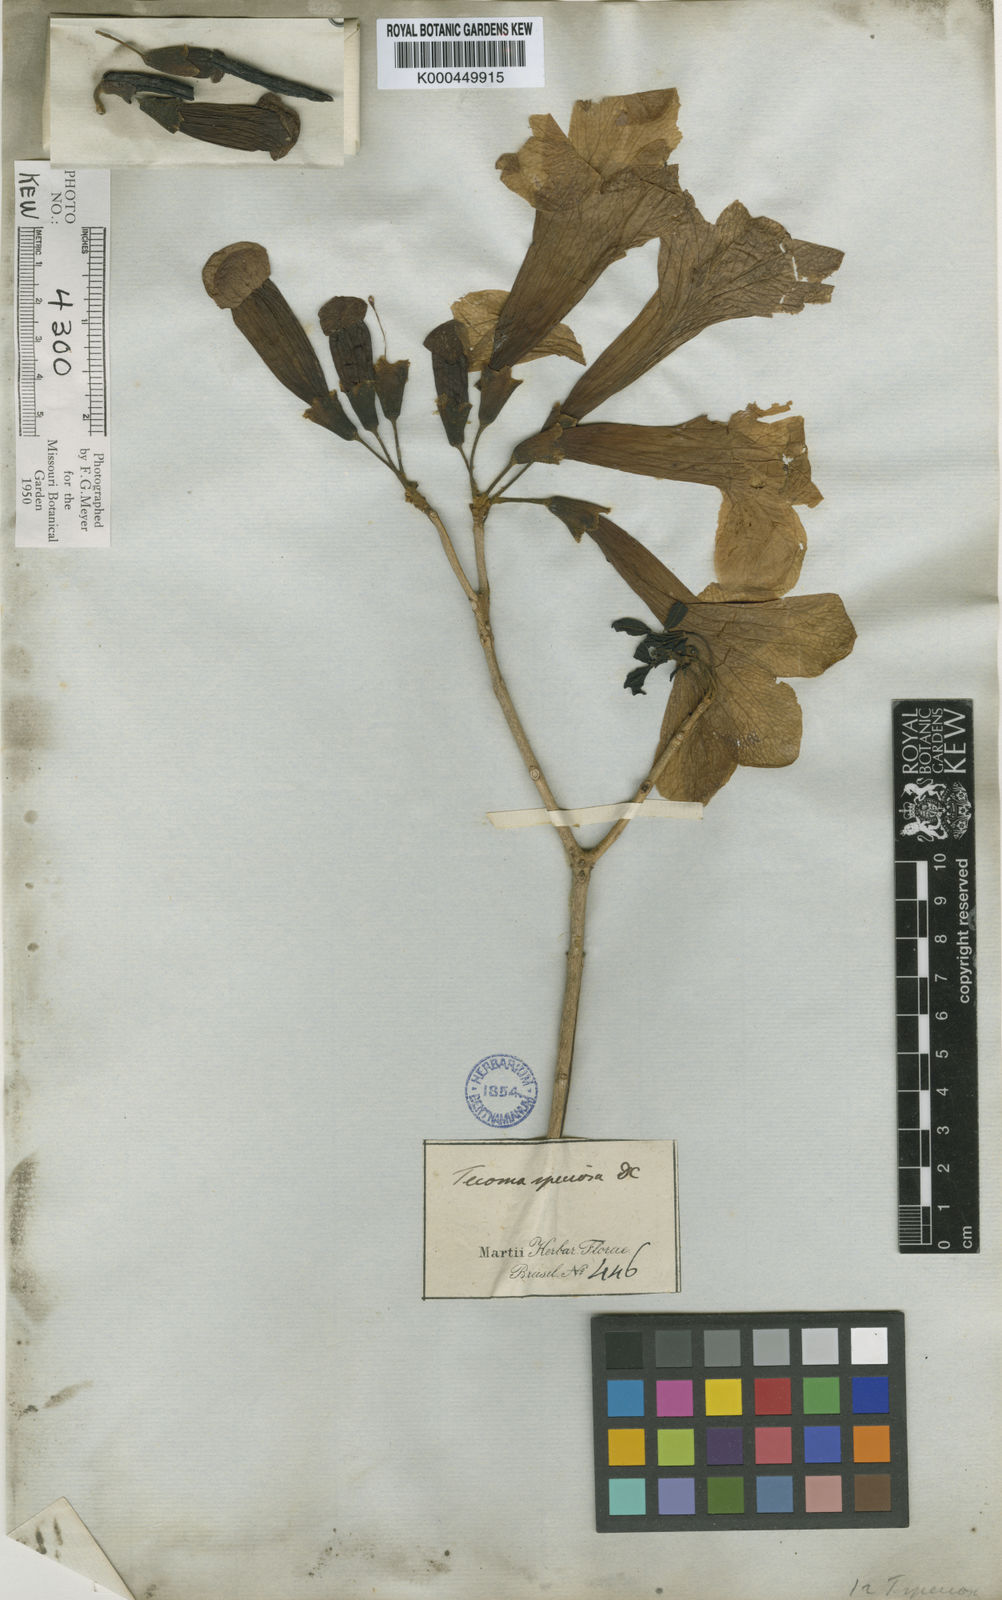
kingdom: Plantae
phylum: Tracheophyta
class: Magnoliopsida
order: Lamiales
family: Bignoniaceae
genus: Handroanthus
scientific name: Handroanthus serratifolius
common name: Yellow ipe
